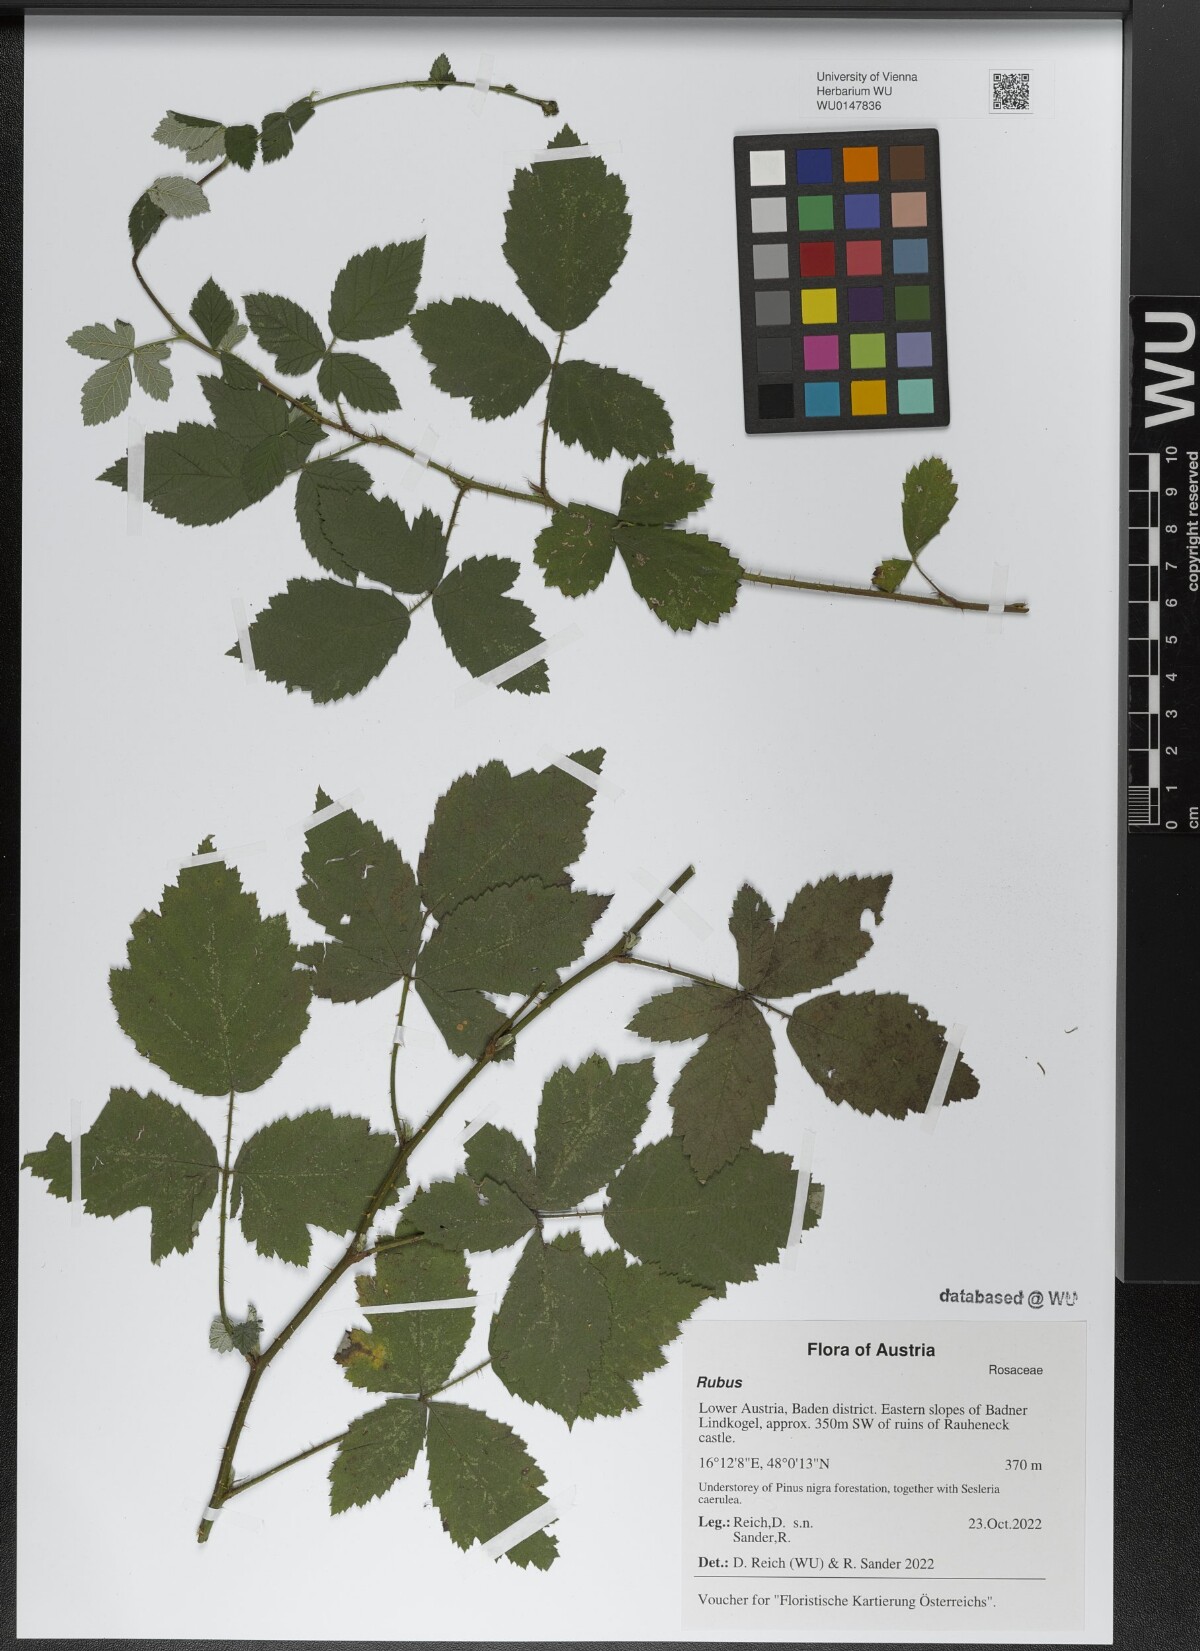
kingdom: Plantae
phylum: Tracheophyta
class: Magnoliopsida
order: Rosales
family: Rosaceae
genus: Rubus
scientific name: Rubus
